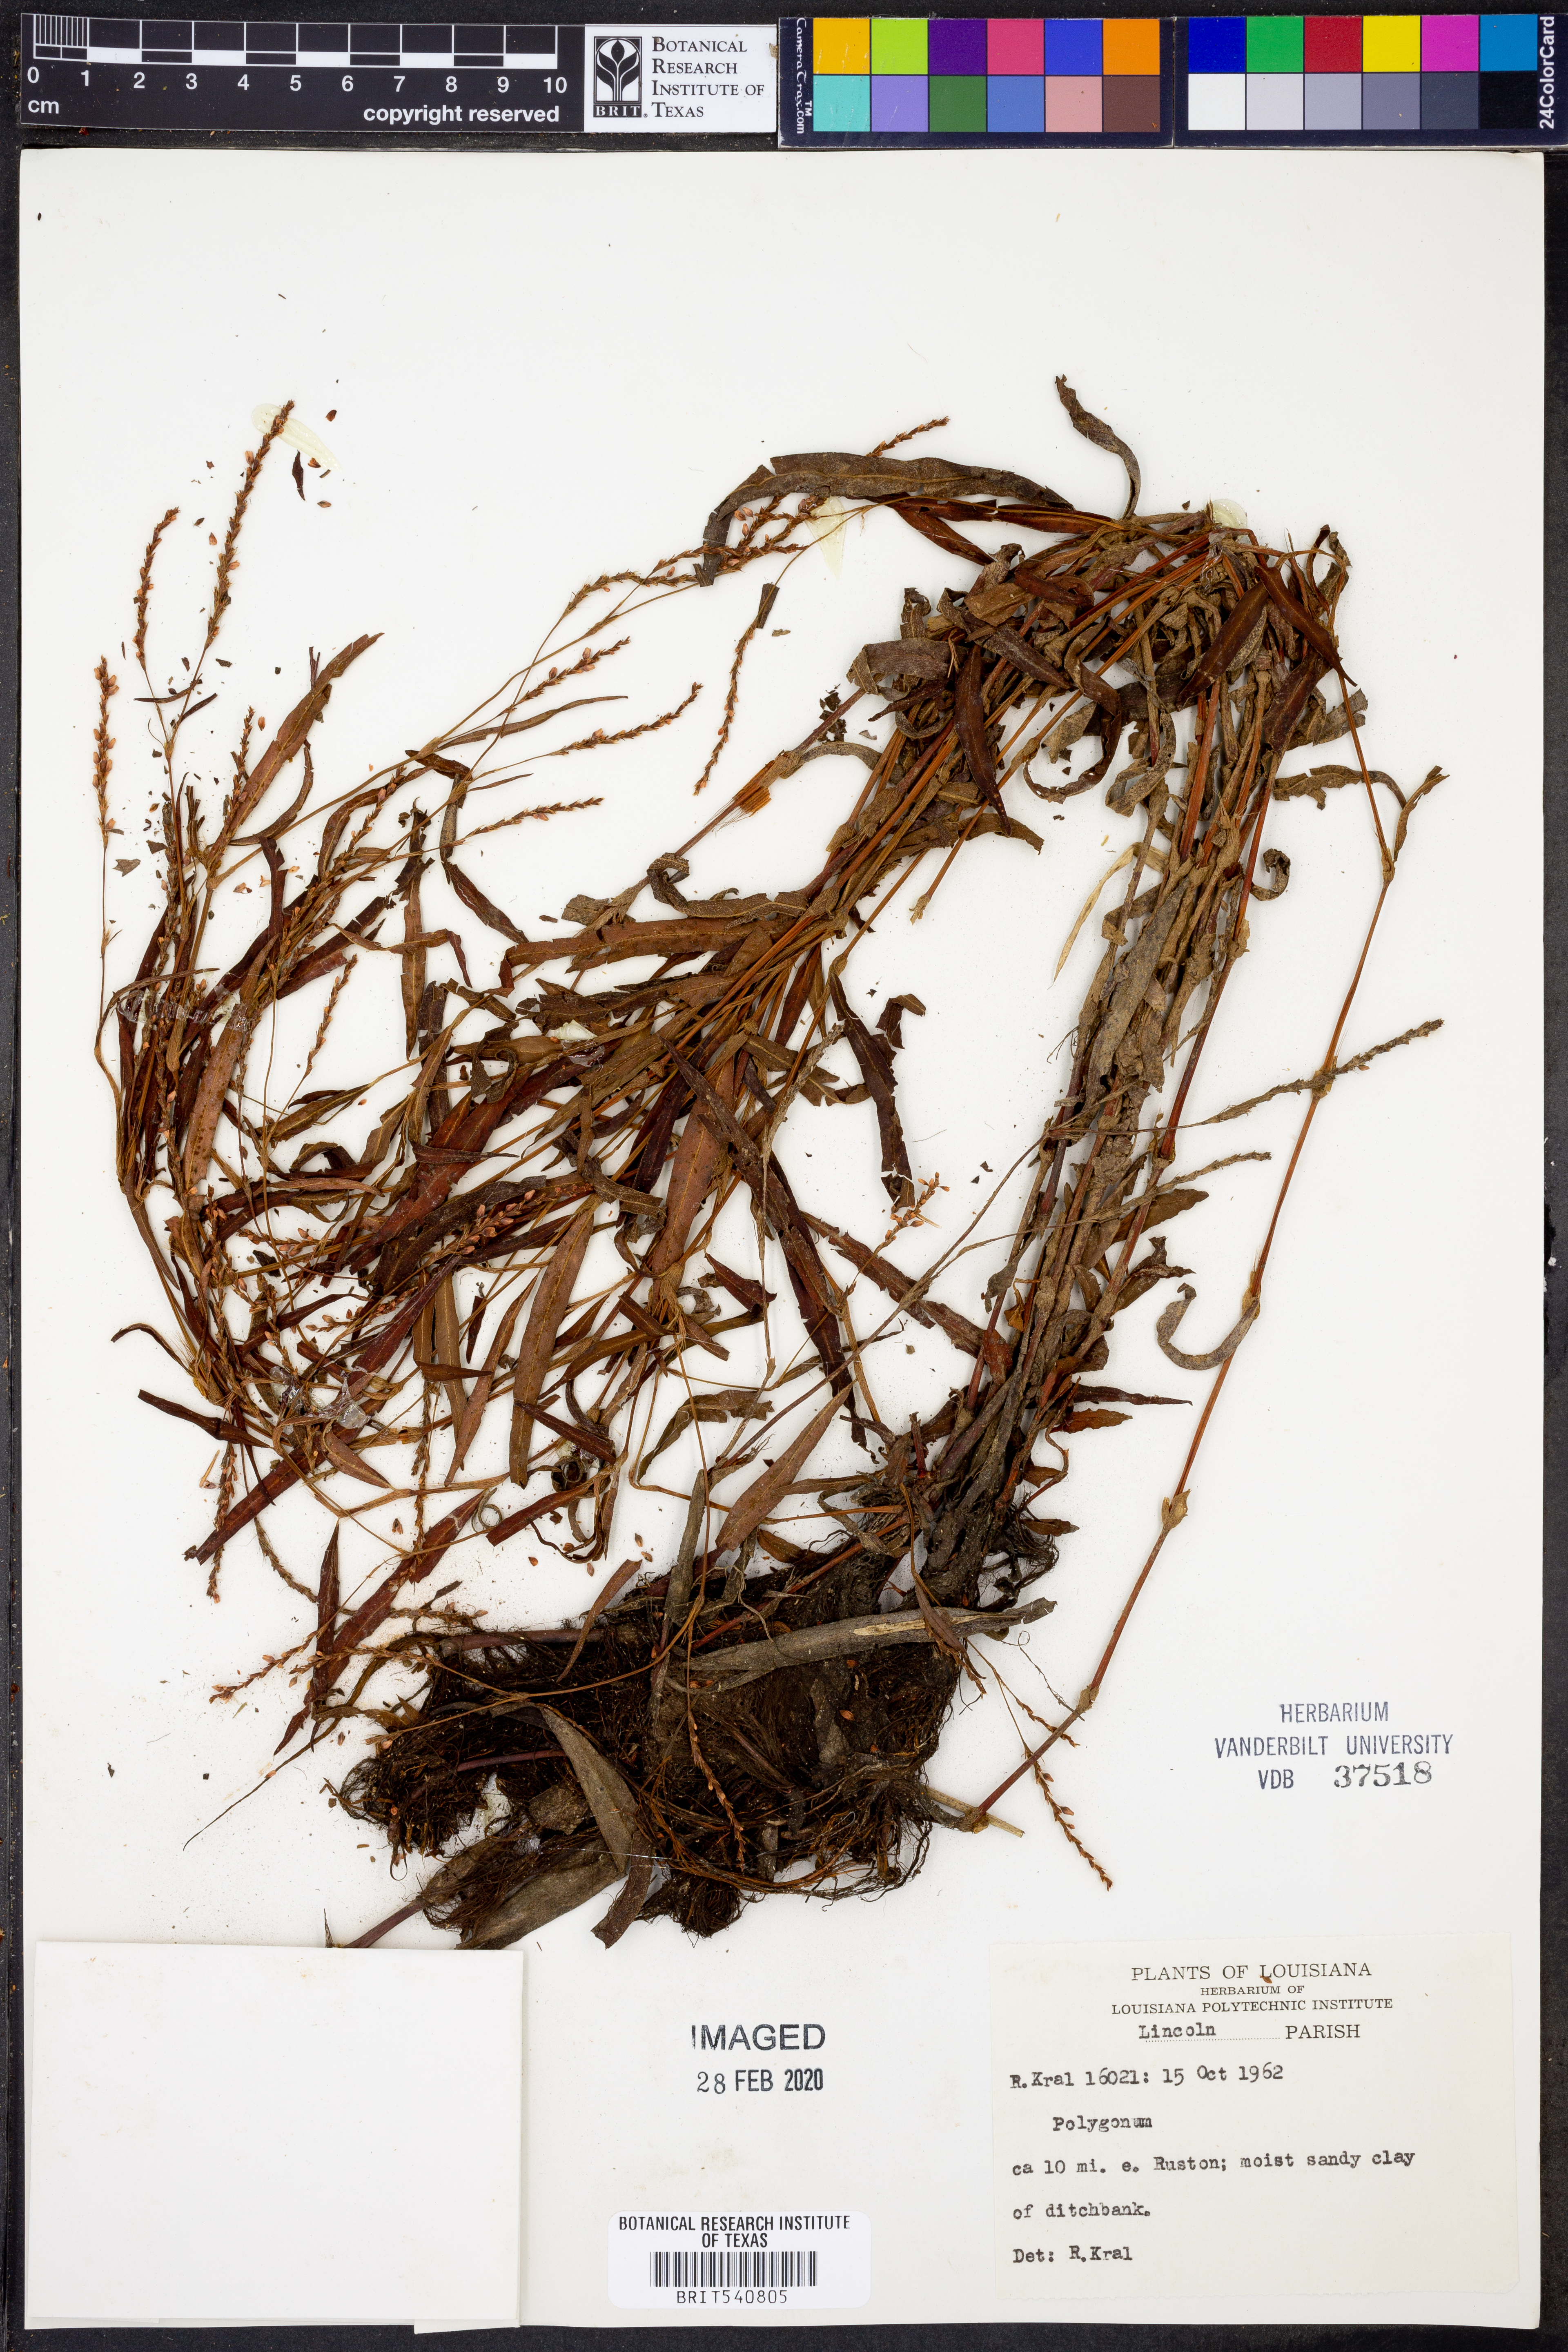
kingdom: Plantae
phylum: Tracheophyta
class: Magnoliopsida
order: Caryophyllales
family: Polygonaceae
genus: Polygonum
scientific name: Polygonum
